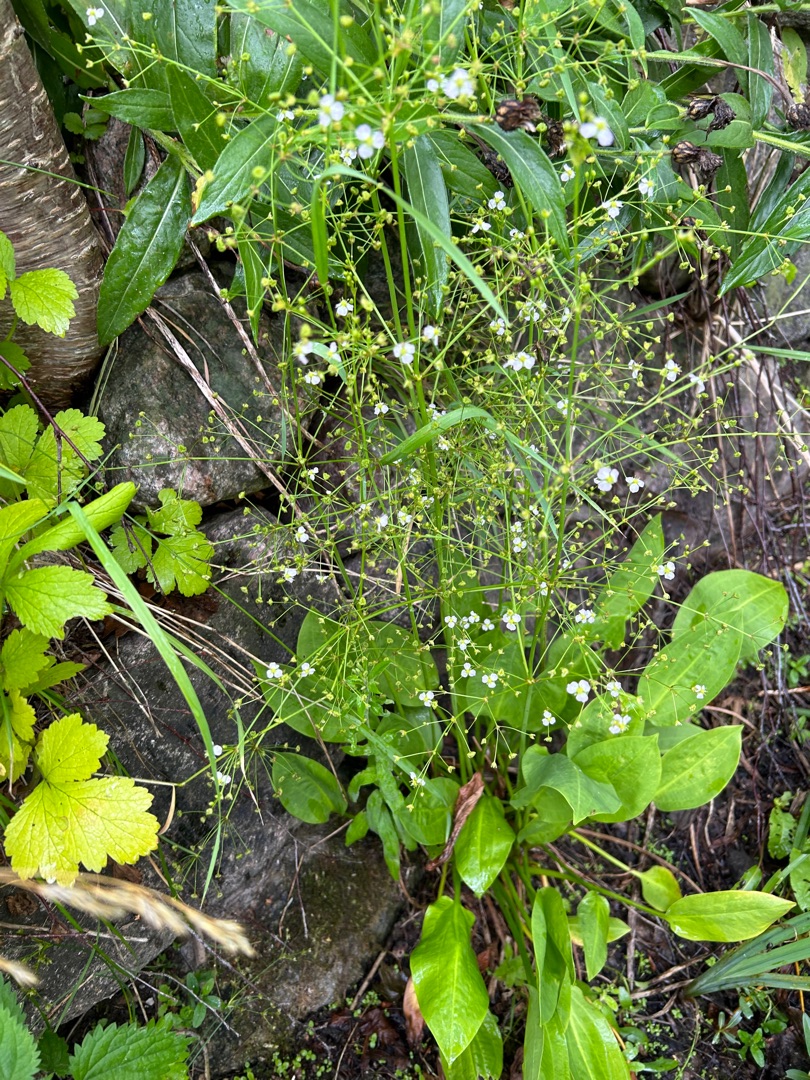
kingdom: Plantae
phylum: Tracheophyta
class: Liliopsida
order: Alismatales
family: Alismataceae
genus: Alisma
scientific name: Alisma plantago-aquatica
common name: Vejbred-skeblad
